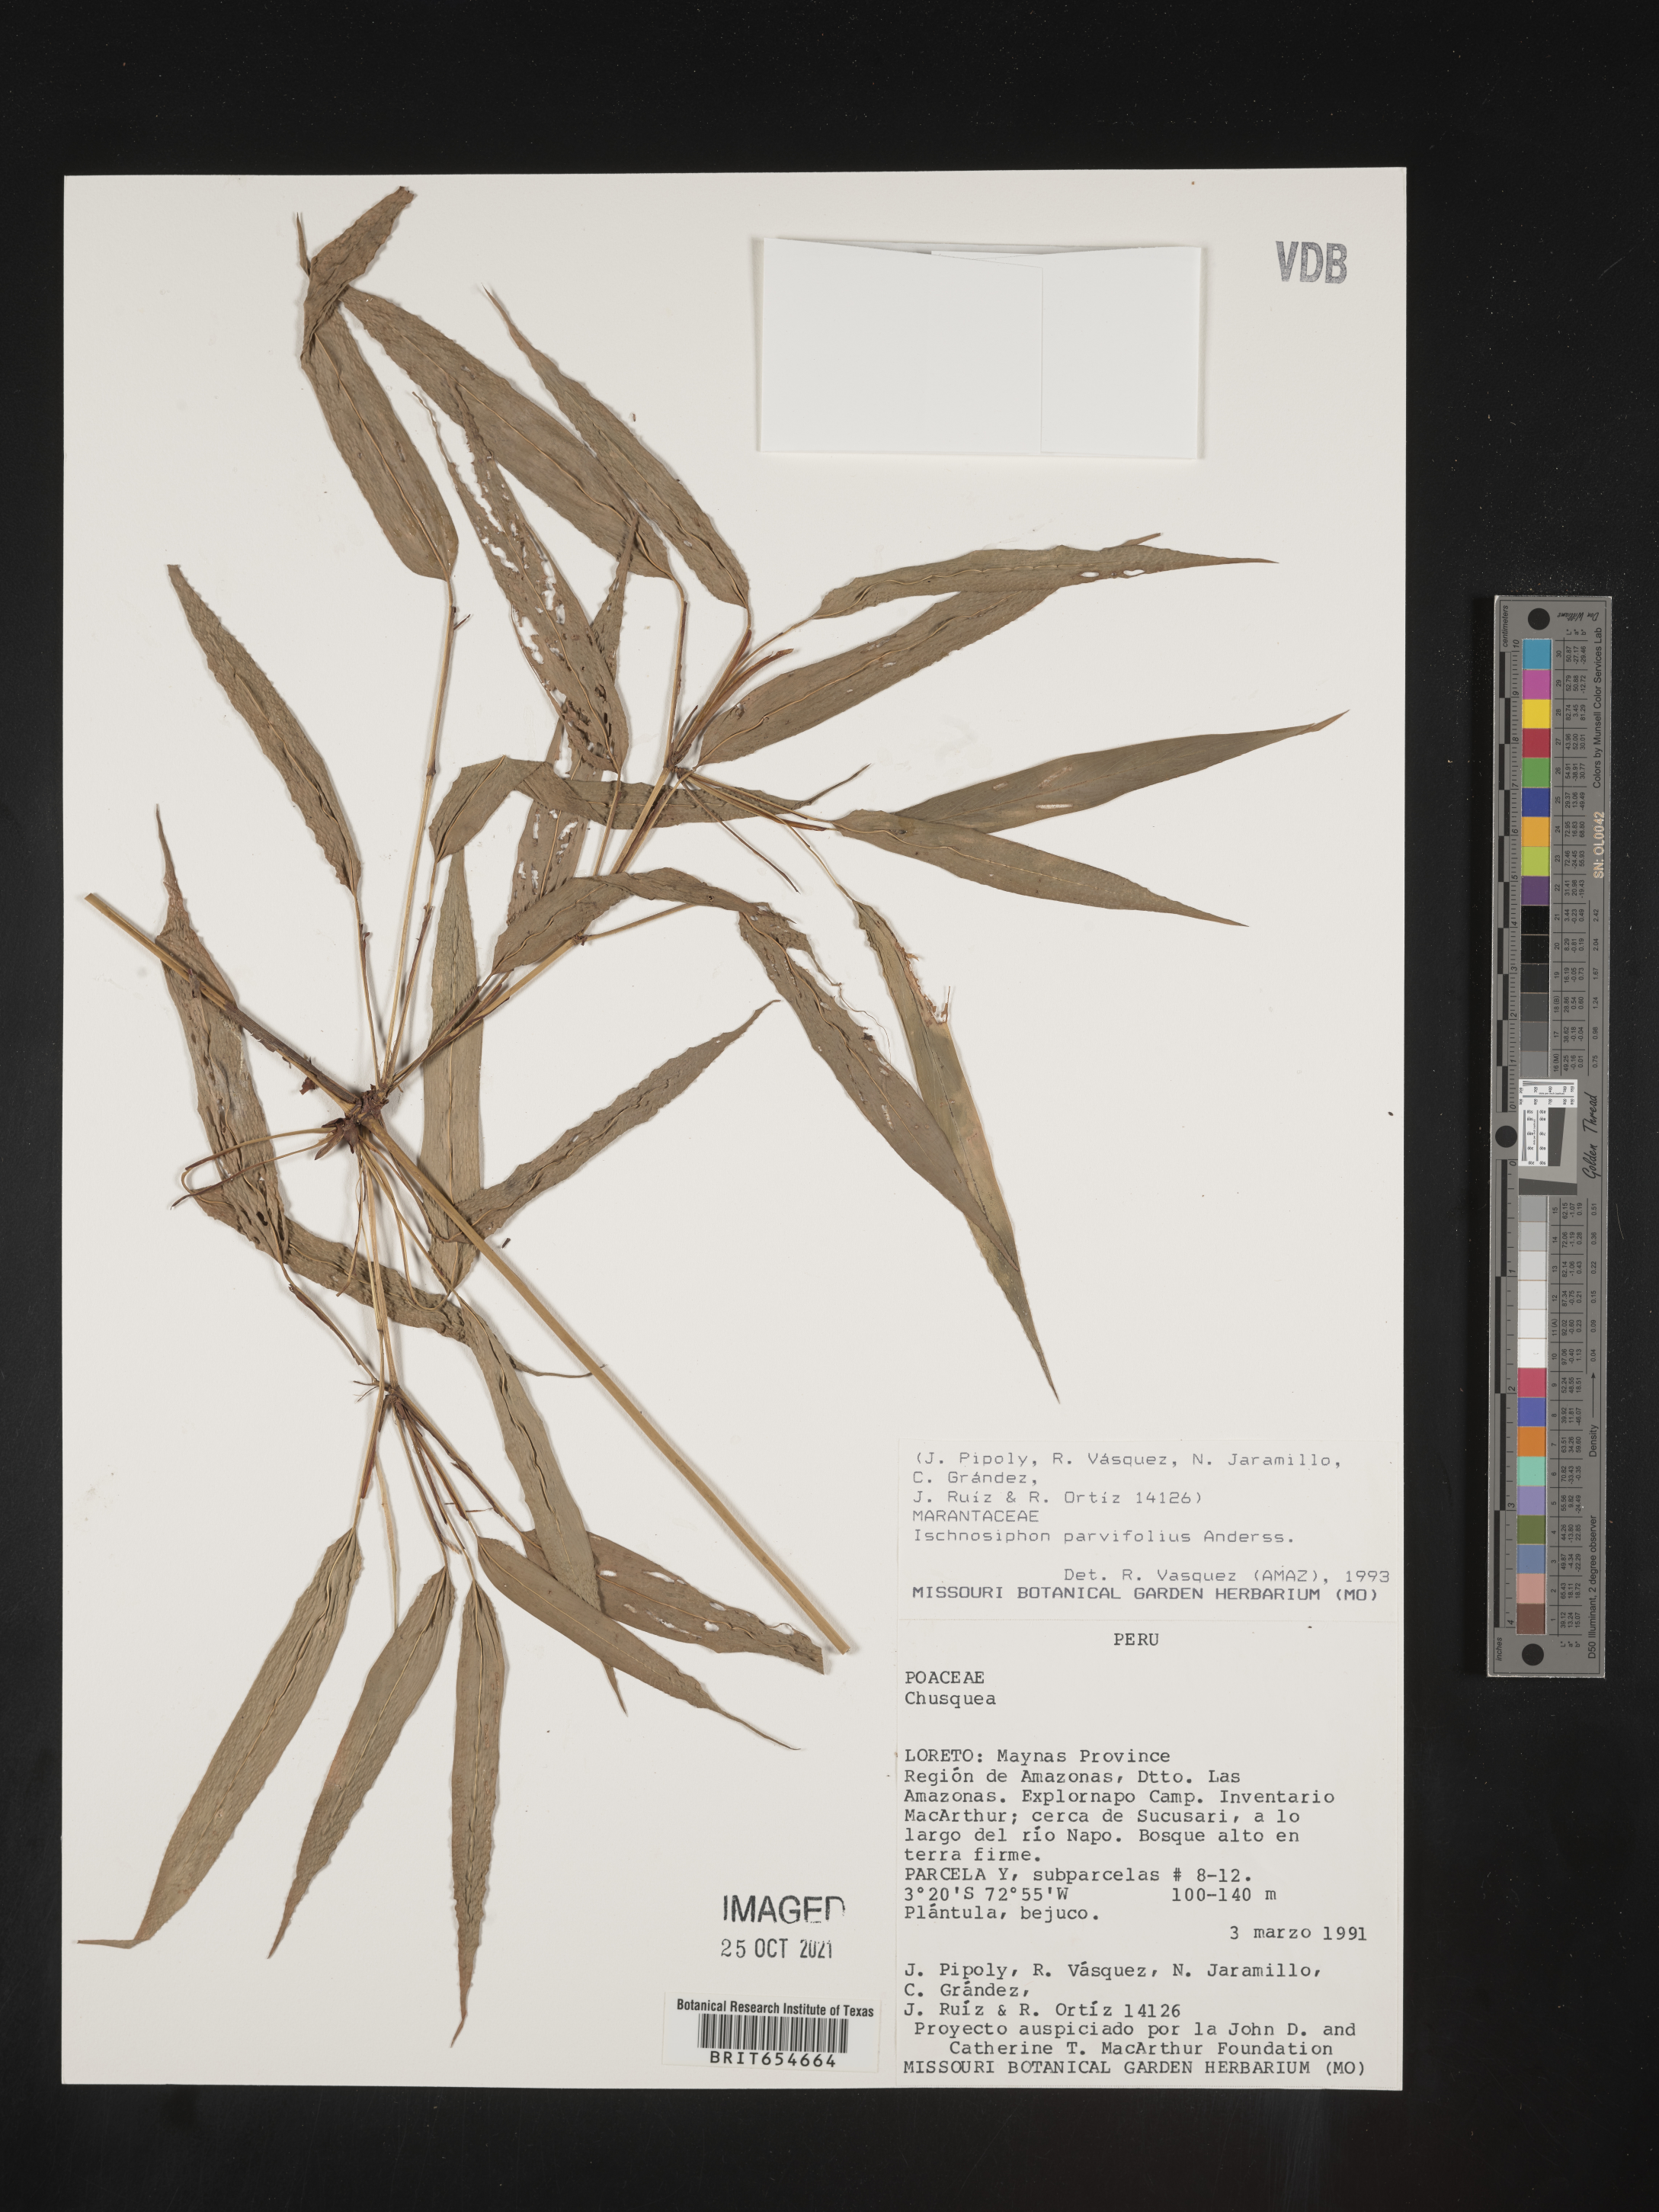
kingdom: Plantae
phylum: Tracheophyta
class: Liliopsida
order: Zingiberales
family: Marantaceae
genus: Ischnosiphon
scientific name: Ischnosiphon
